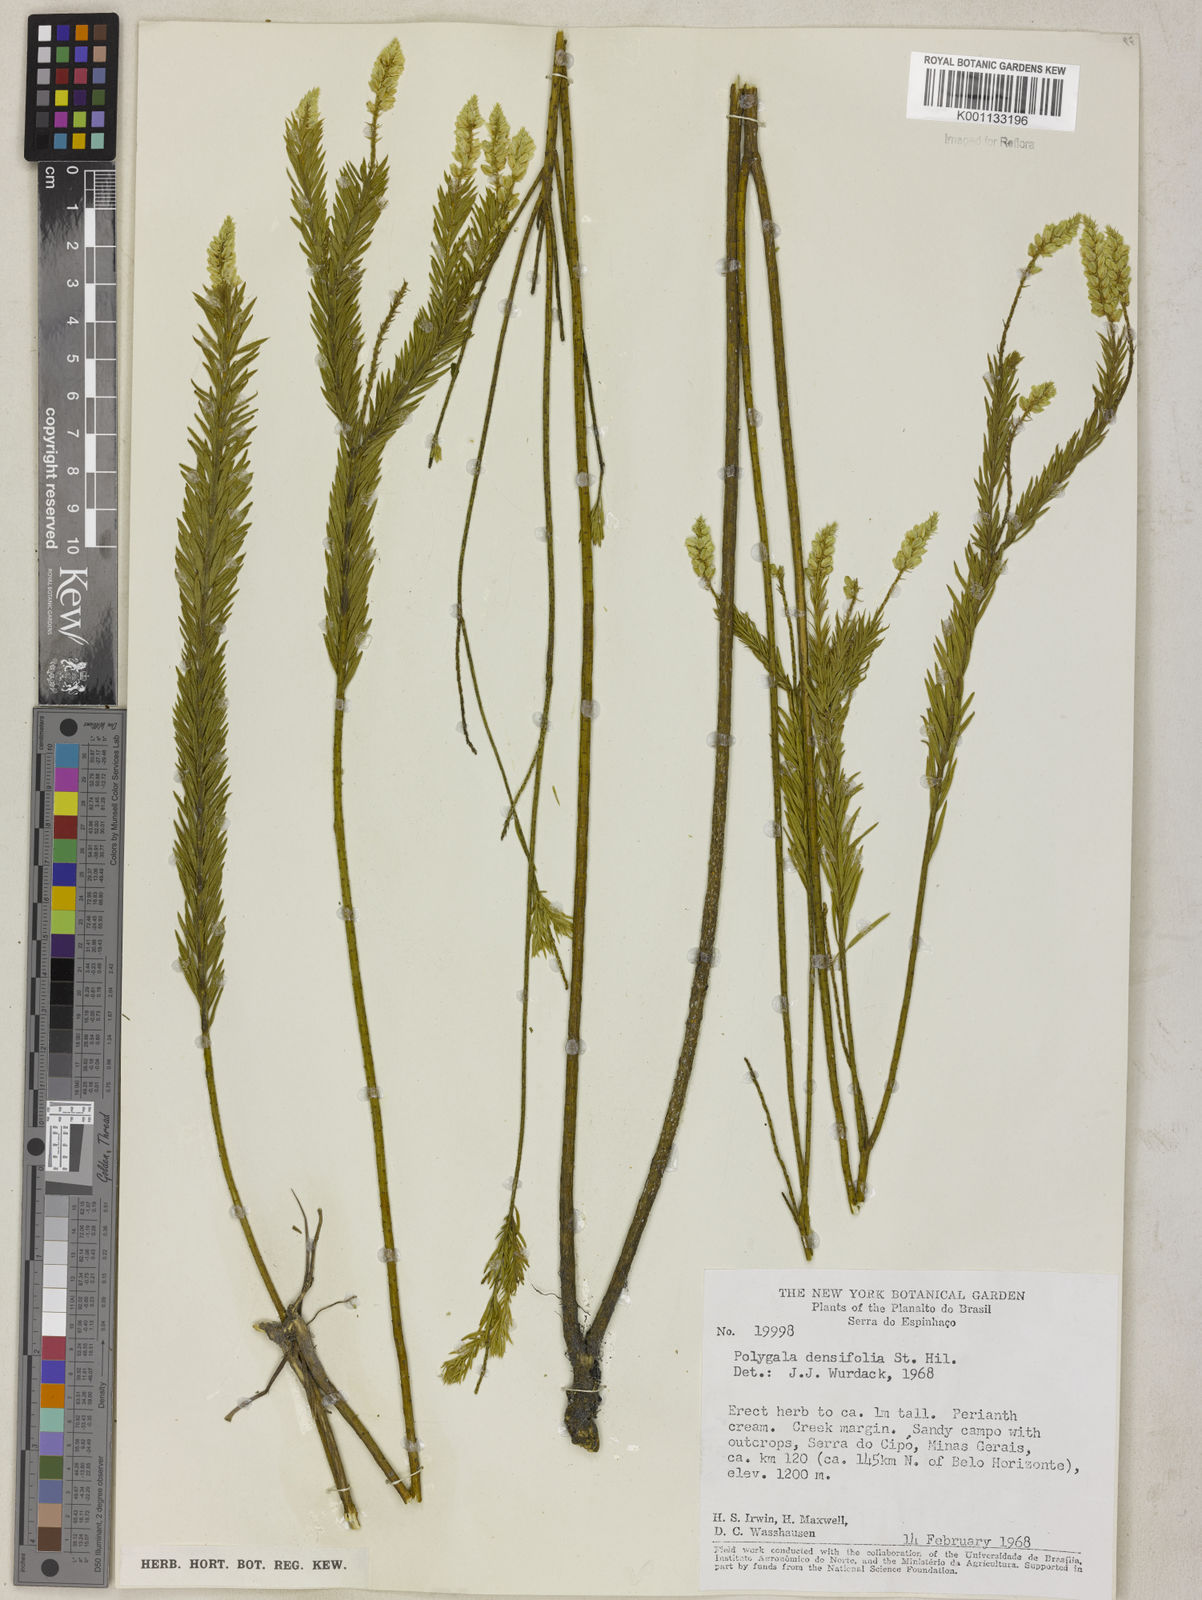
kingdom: Plantae
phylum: Tracheophyta
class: Magnoliopsida
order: Fabales
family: Polygalaceae
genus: Polygala
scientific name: Polygala densifolia
